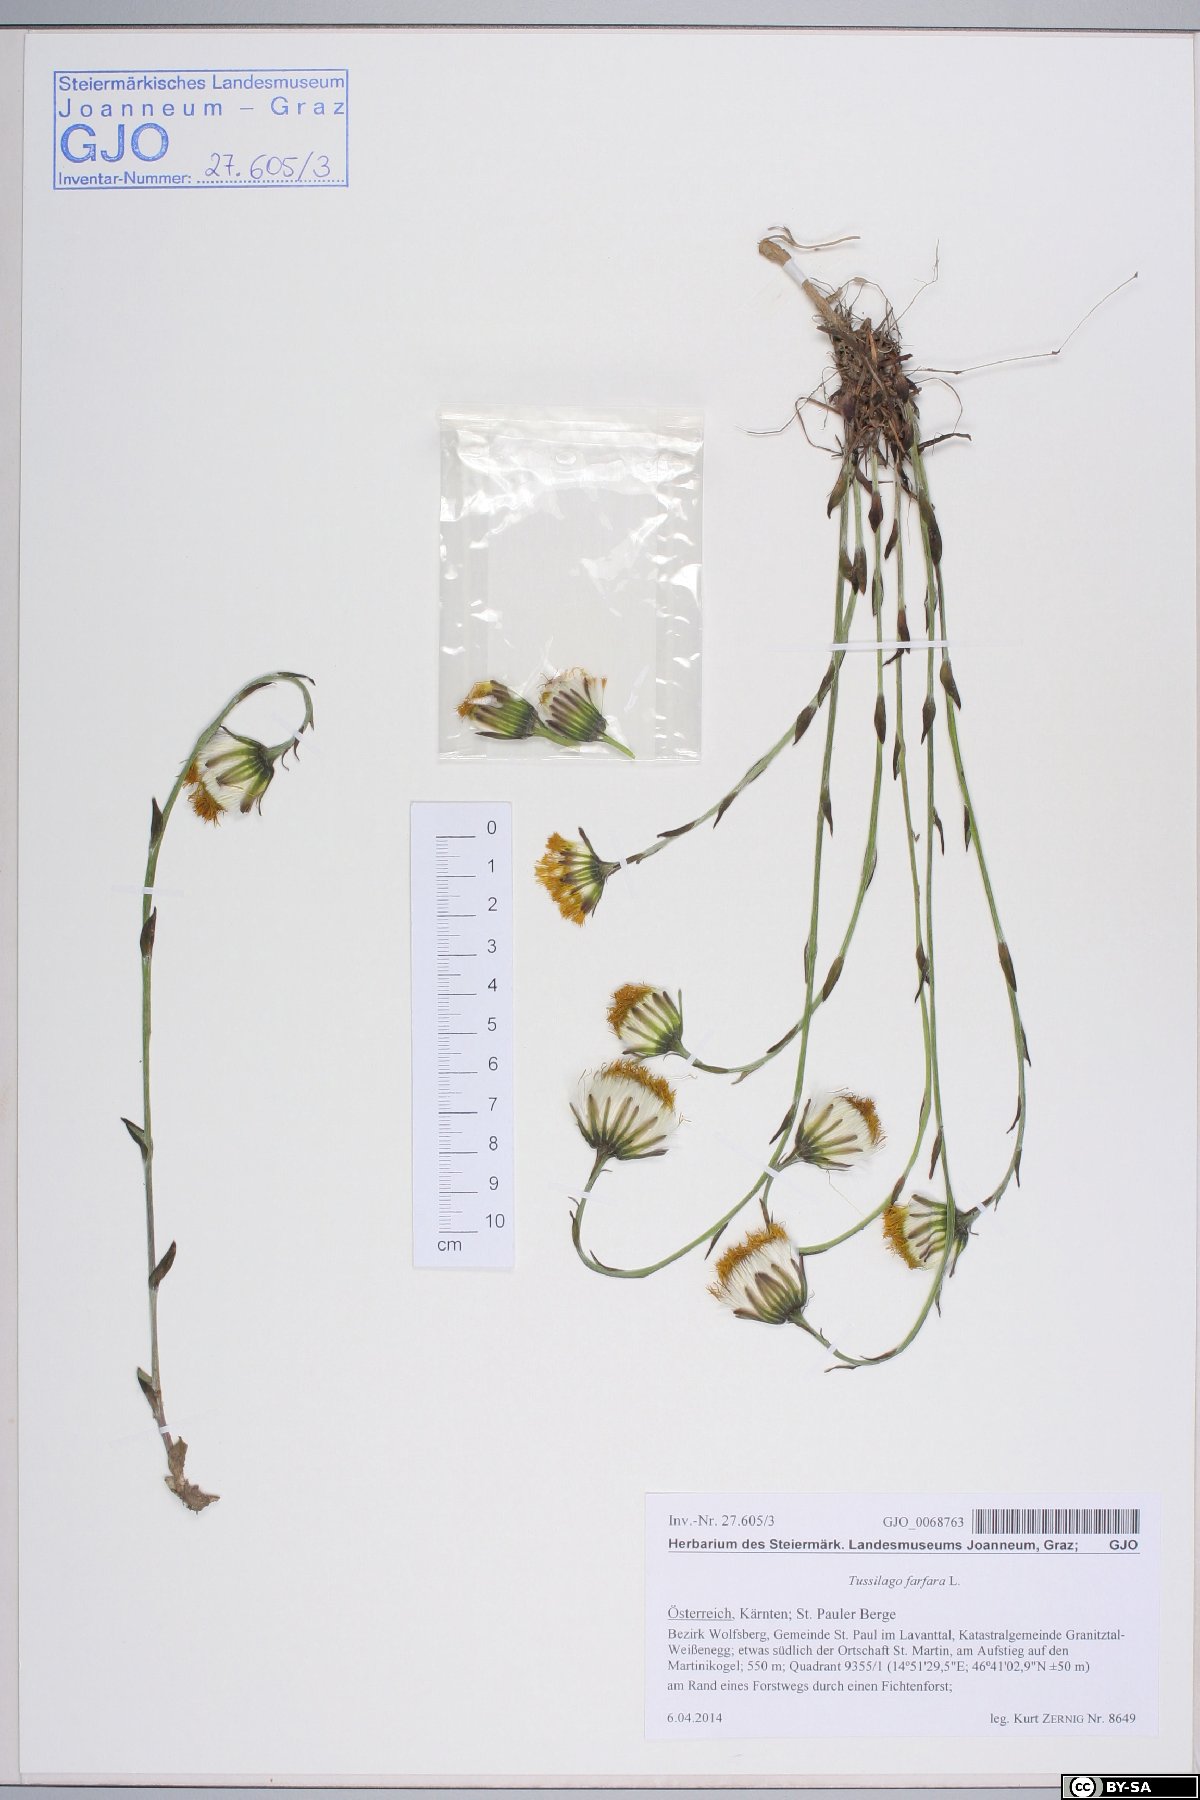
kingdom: Plantae
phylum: Tracheophyta
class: Magnoliopsida
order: Asterales
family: Asteraceae
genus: Tussilago
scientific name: Tussilago farfara
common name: Coltsfoot
